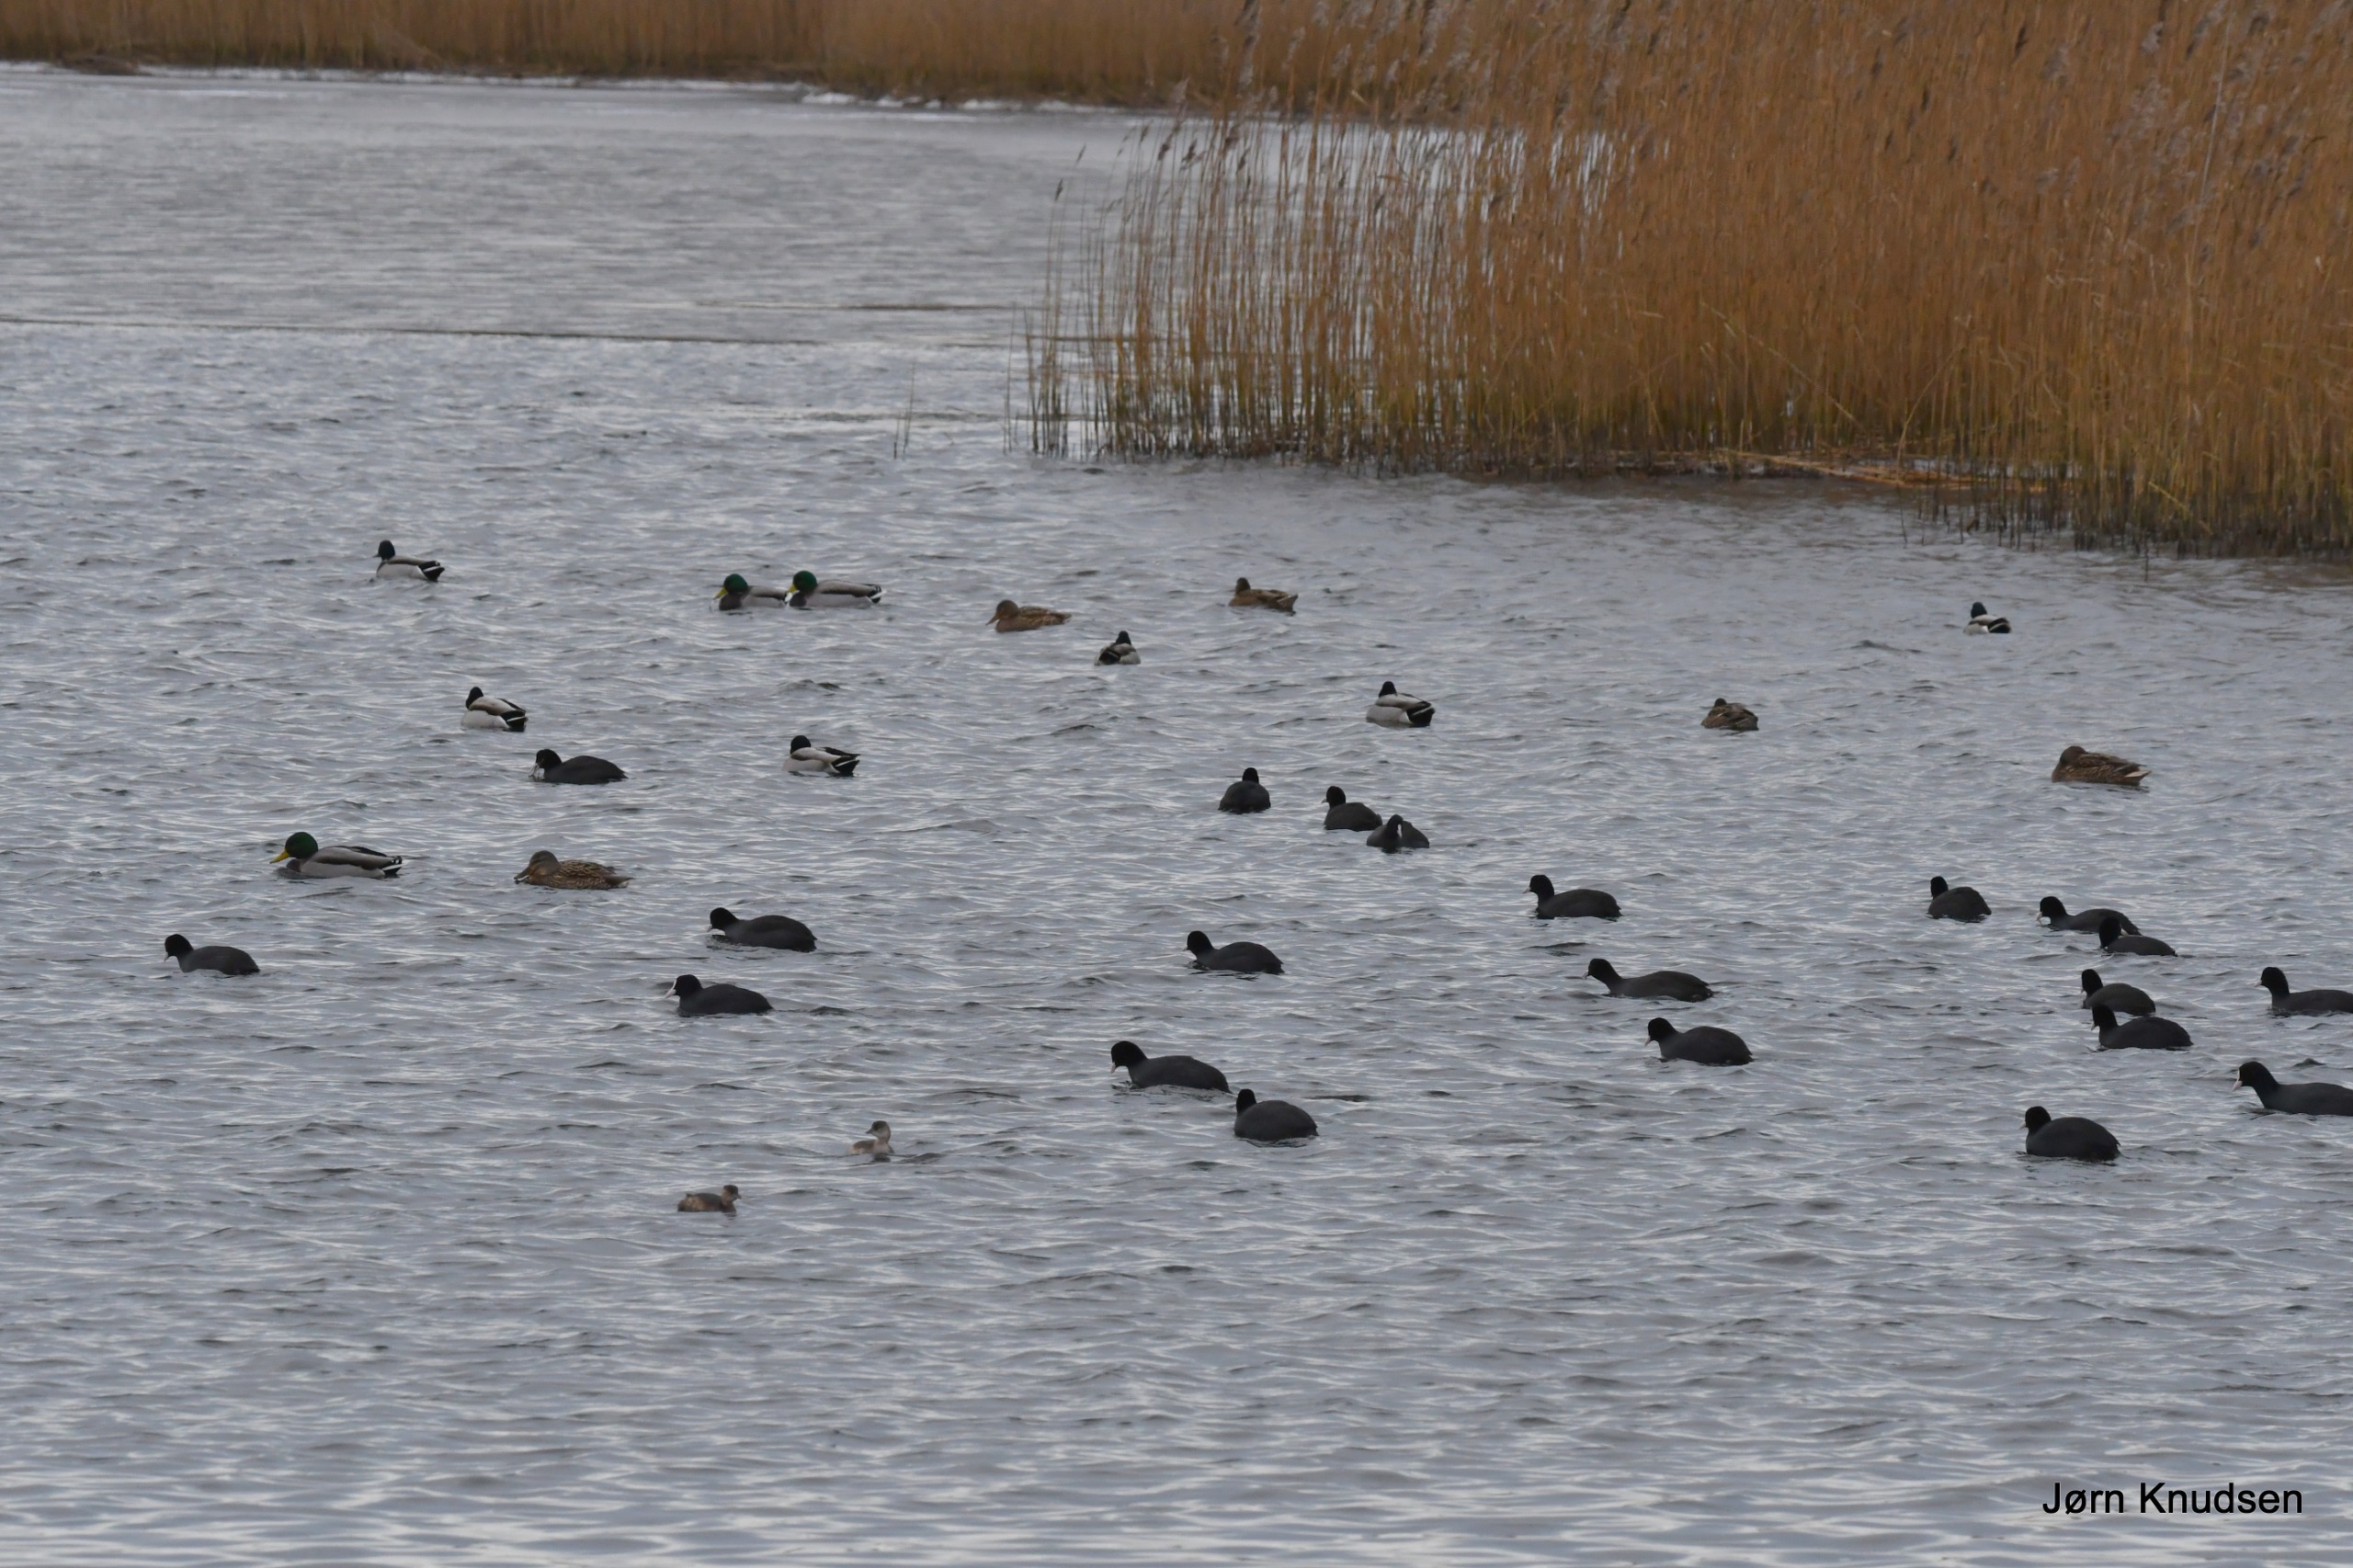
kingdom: Animalia
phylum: Chordata
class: Aves
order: Podicipediformes
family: Podicipedidae
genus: Tachybaptus
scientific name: Tachybaptus ruficollis
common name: Lille lappedykker
